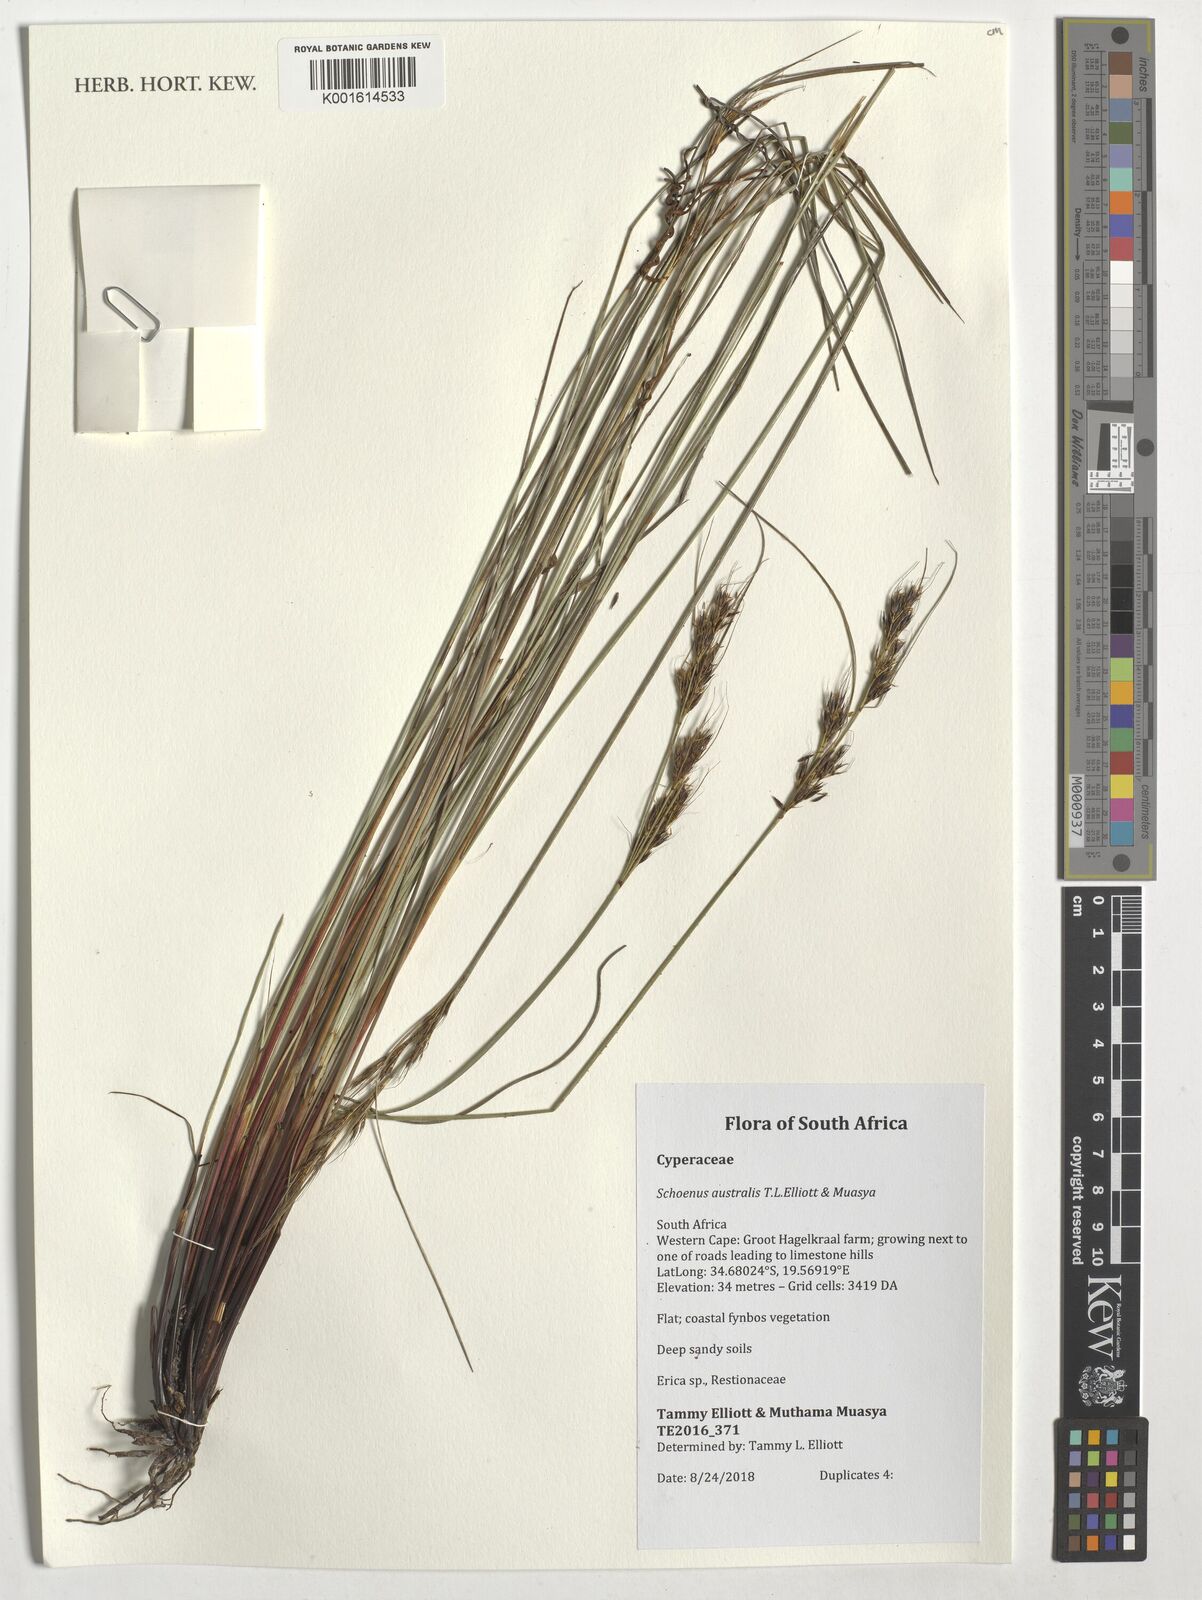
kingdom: Plantae
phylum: Tracheophyta
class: Liliopsida
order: Poales
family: Cyperaceae
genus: Schoenus
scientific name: Schoenus
